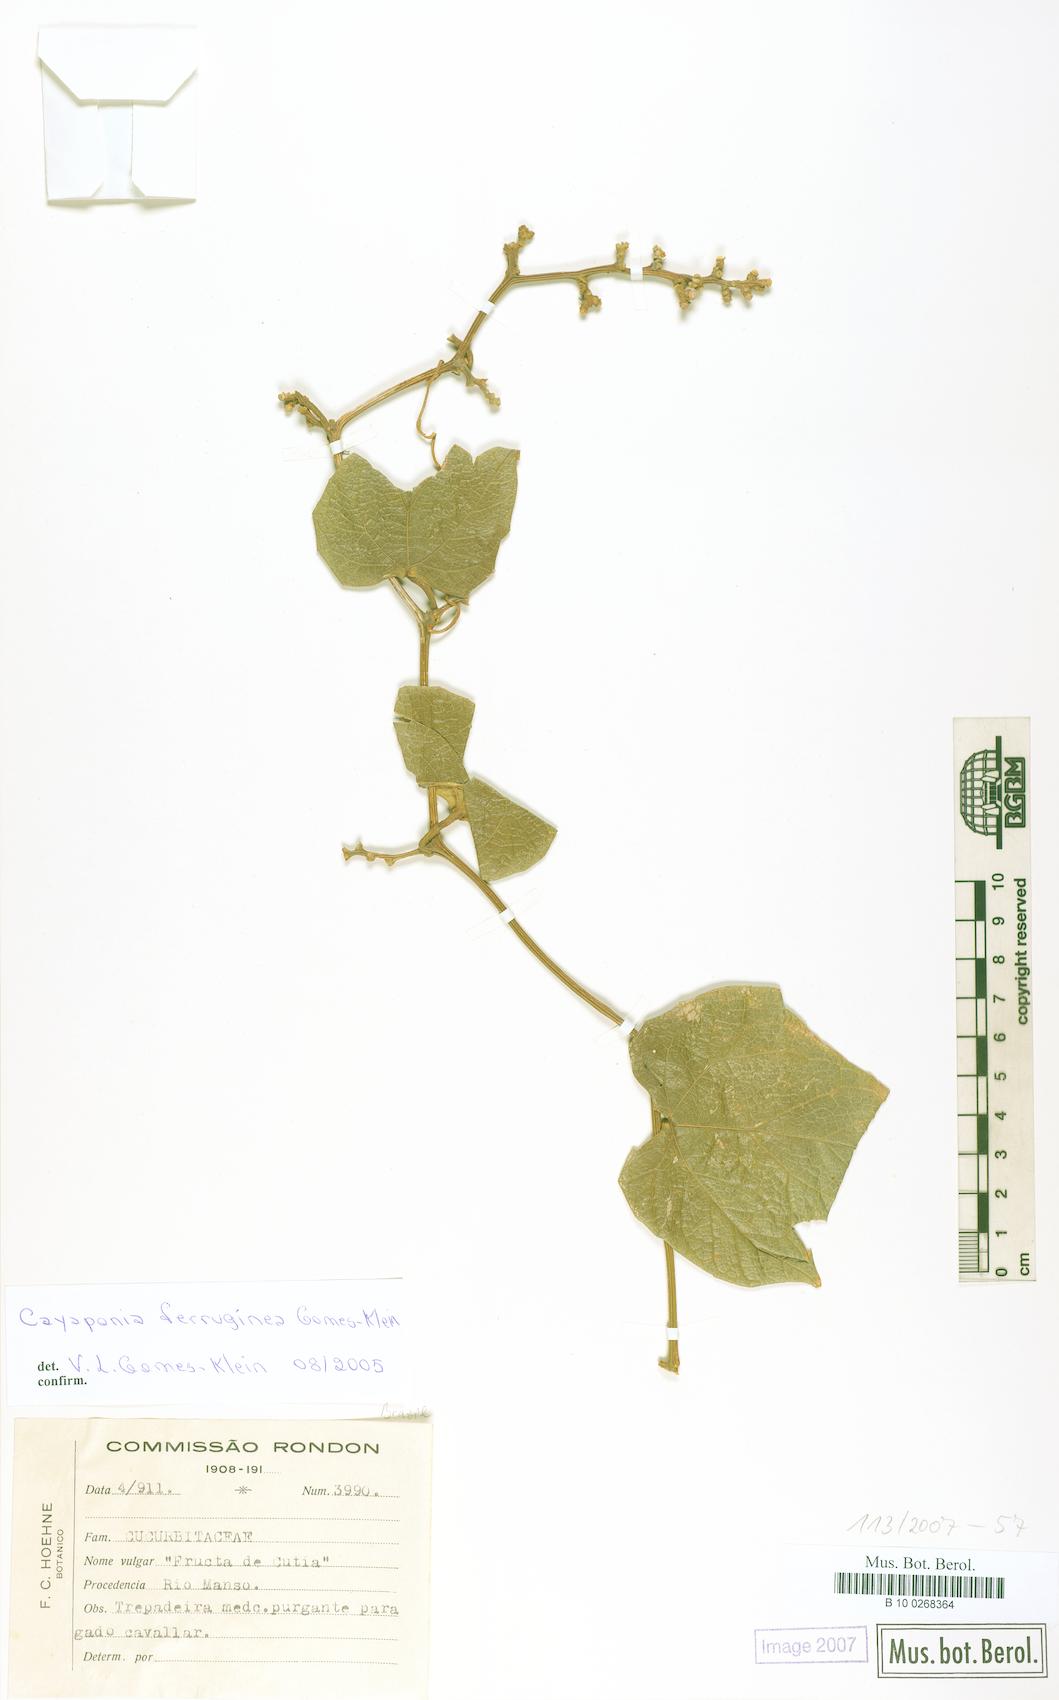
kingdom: Plantae
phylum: Tracheophyta
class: Magnoliopsida
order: Cucurbitales
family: Cucurbitaceae
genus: Cayaponia
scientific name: Cayaponia ferruginea
